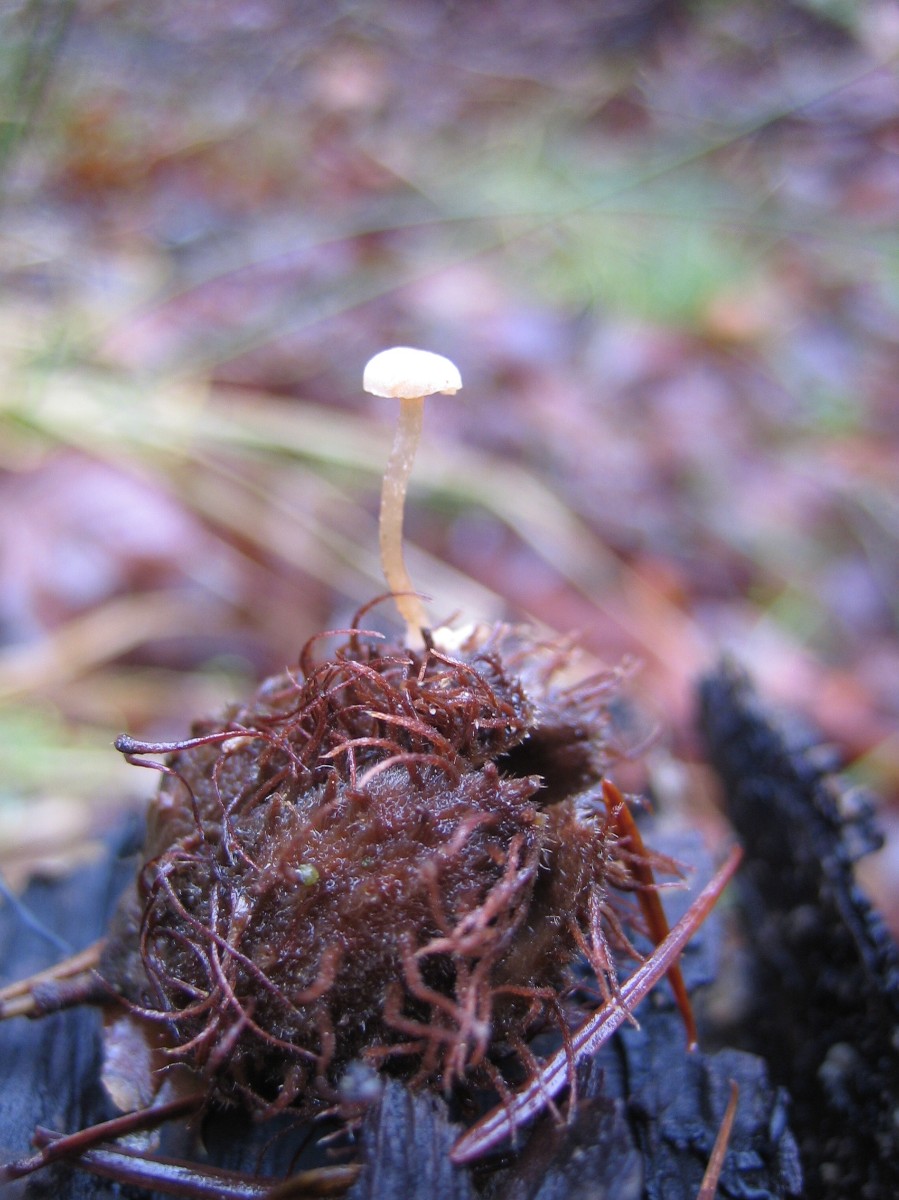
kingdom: Fungi
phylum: Basidiomycota
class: Agaricomycetes
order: Agaricales
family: Tubariaceae
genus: Flammulaster
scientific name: Flammulaster
